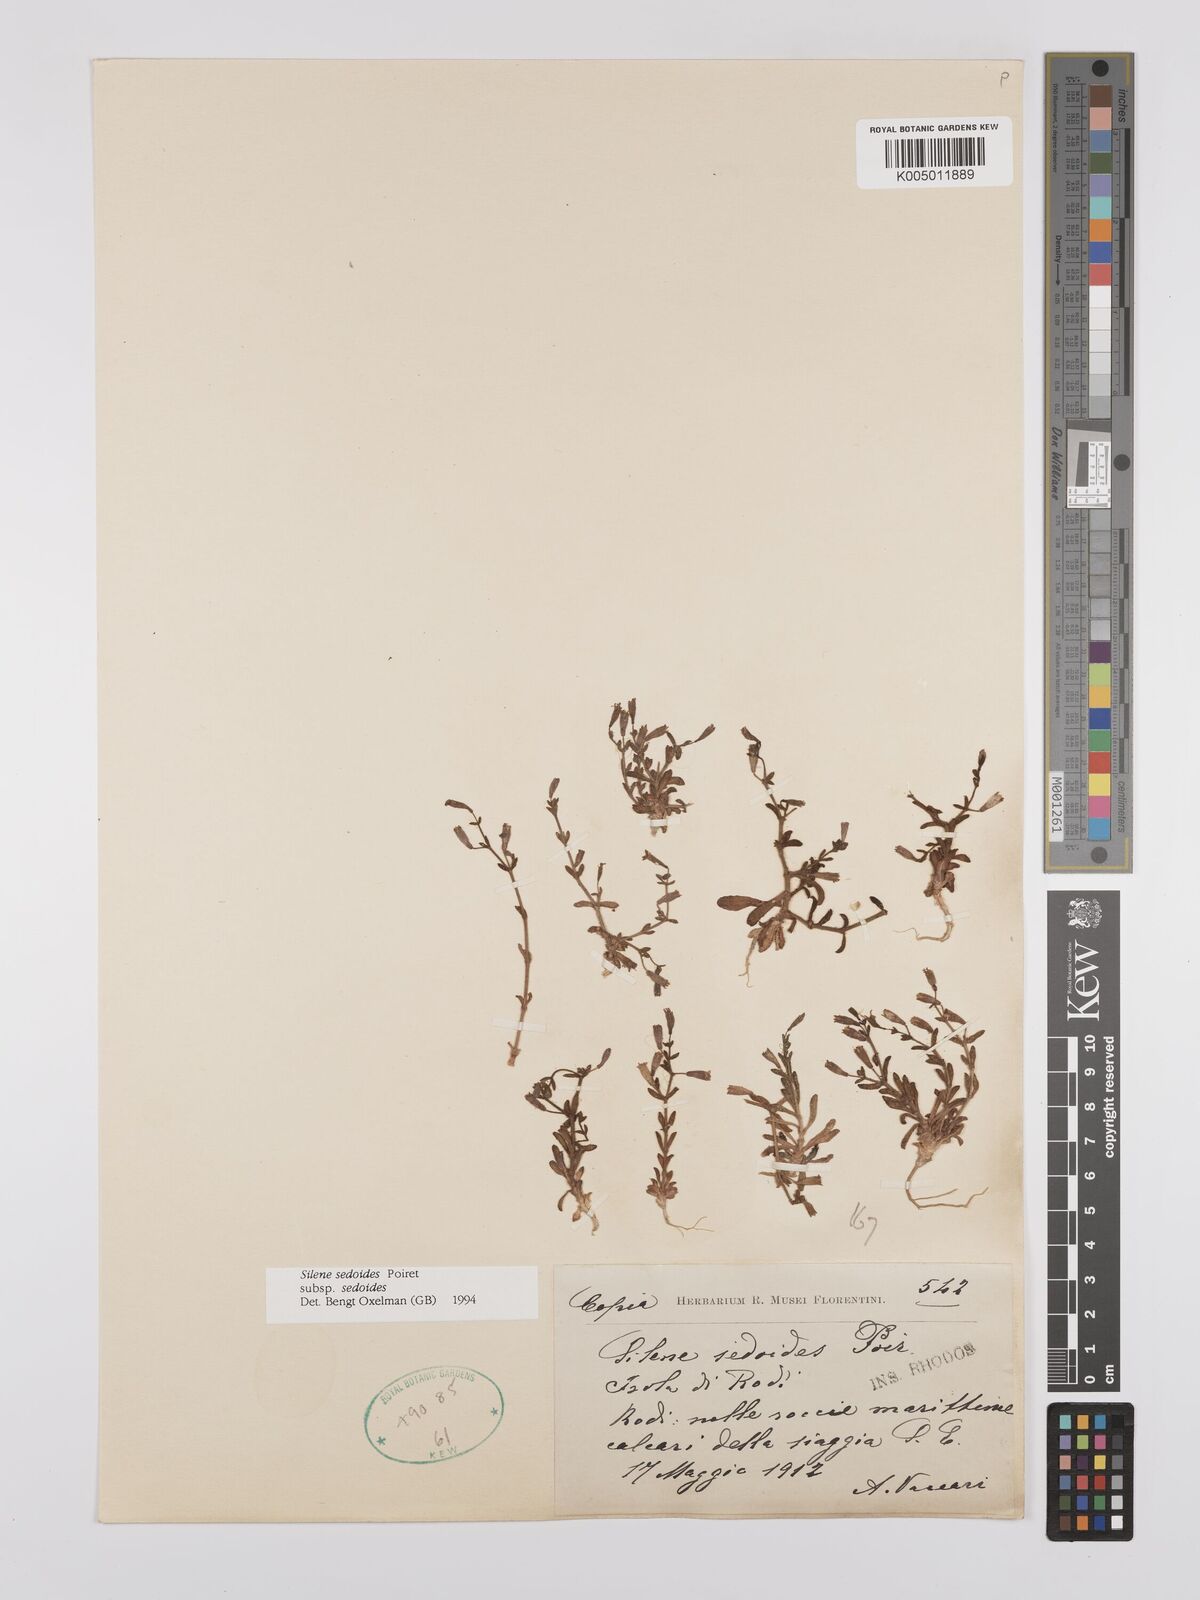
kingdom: Plantae
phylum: Tracheophyta
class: Magnoliopsida
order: Caryophyllales
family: Caryophyllaceae
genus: Silene
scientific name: Silene sedoides
